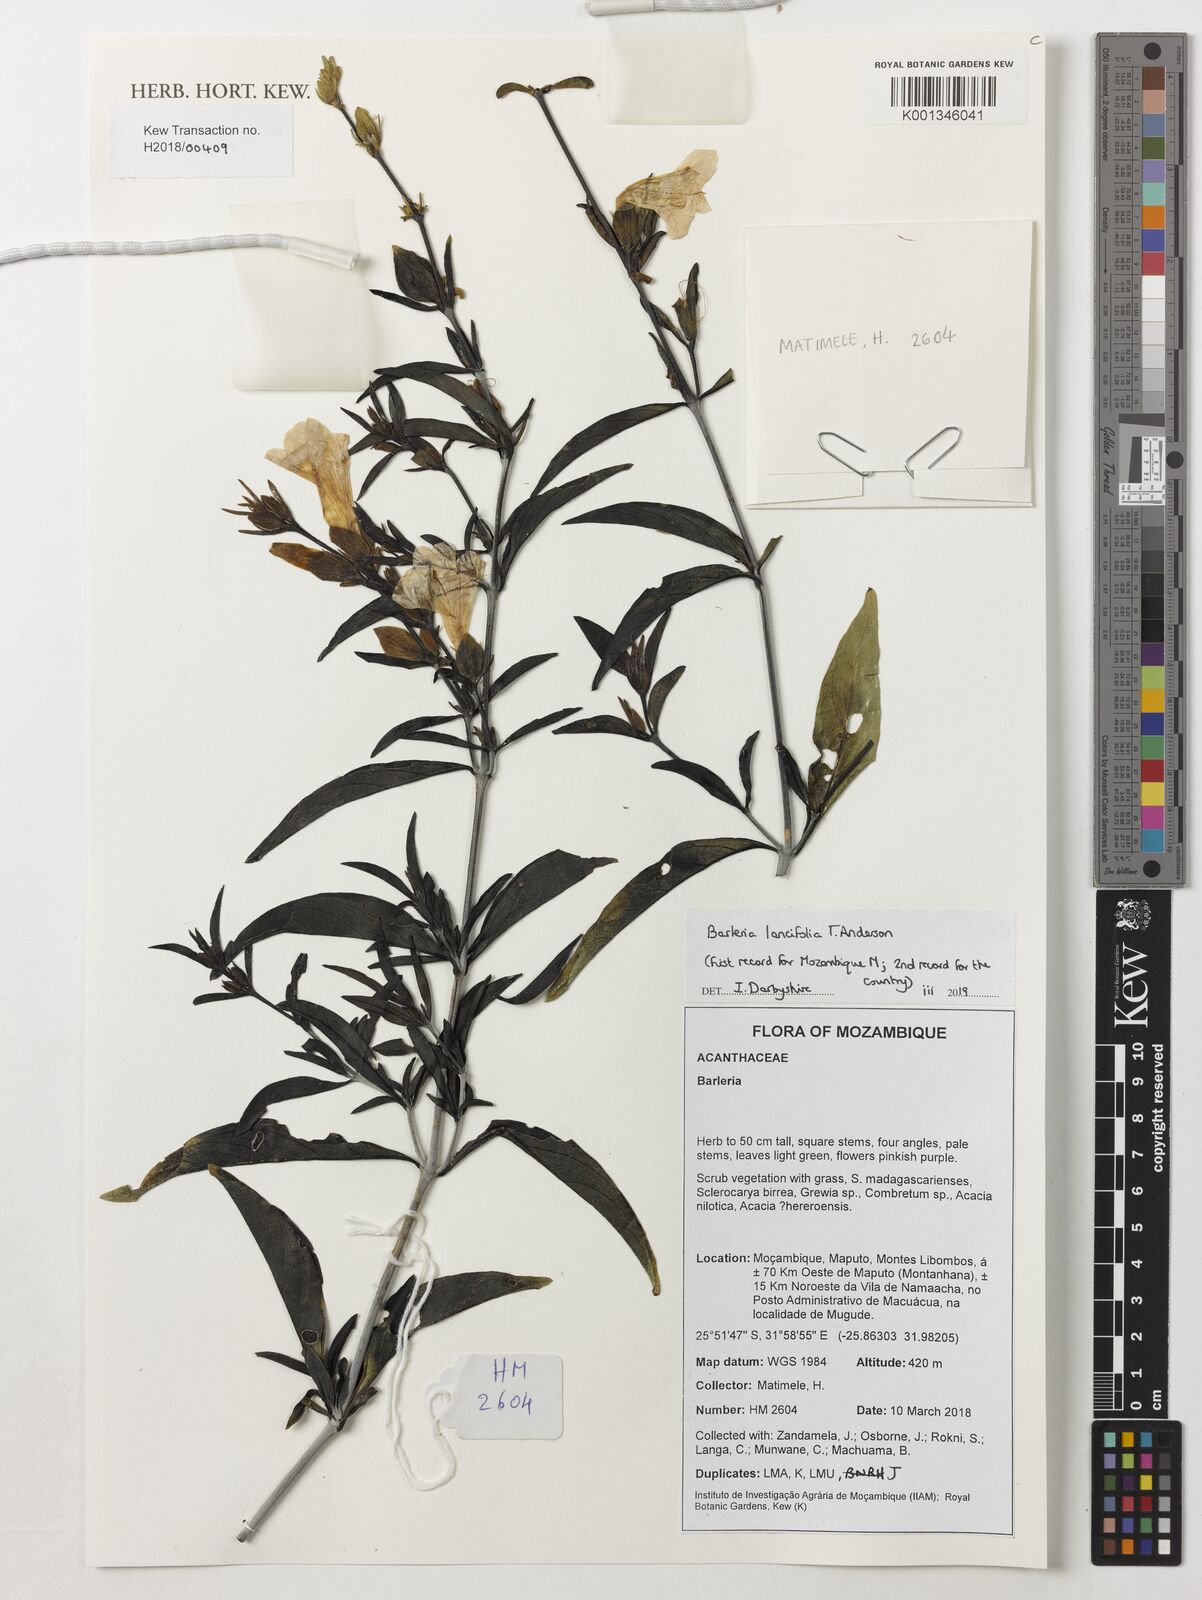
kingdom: Plantae
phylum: Tracheophyta
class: Magnoliopsida
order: Lamiales
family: Acanthaceae
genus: Barleria
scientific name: Barleria
